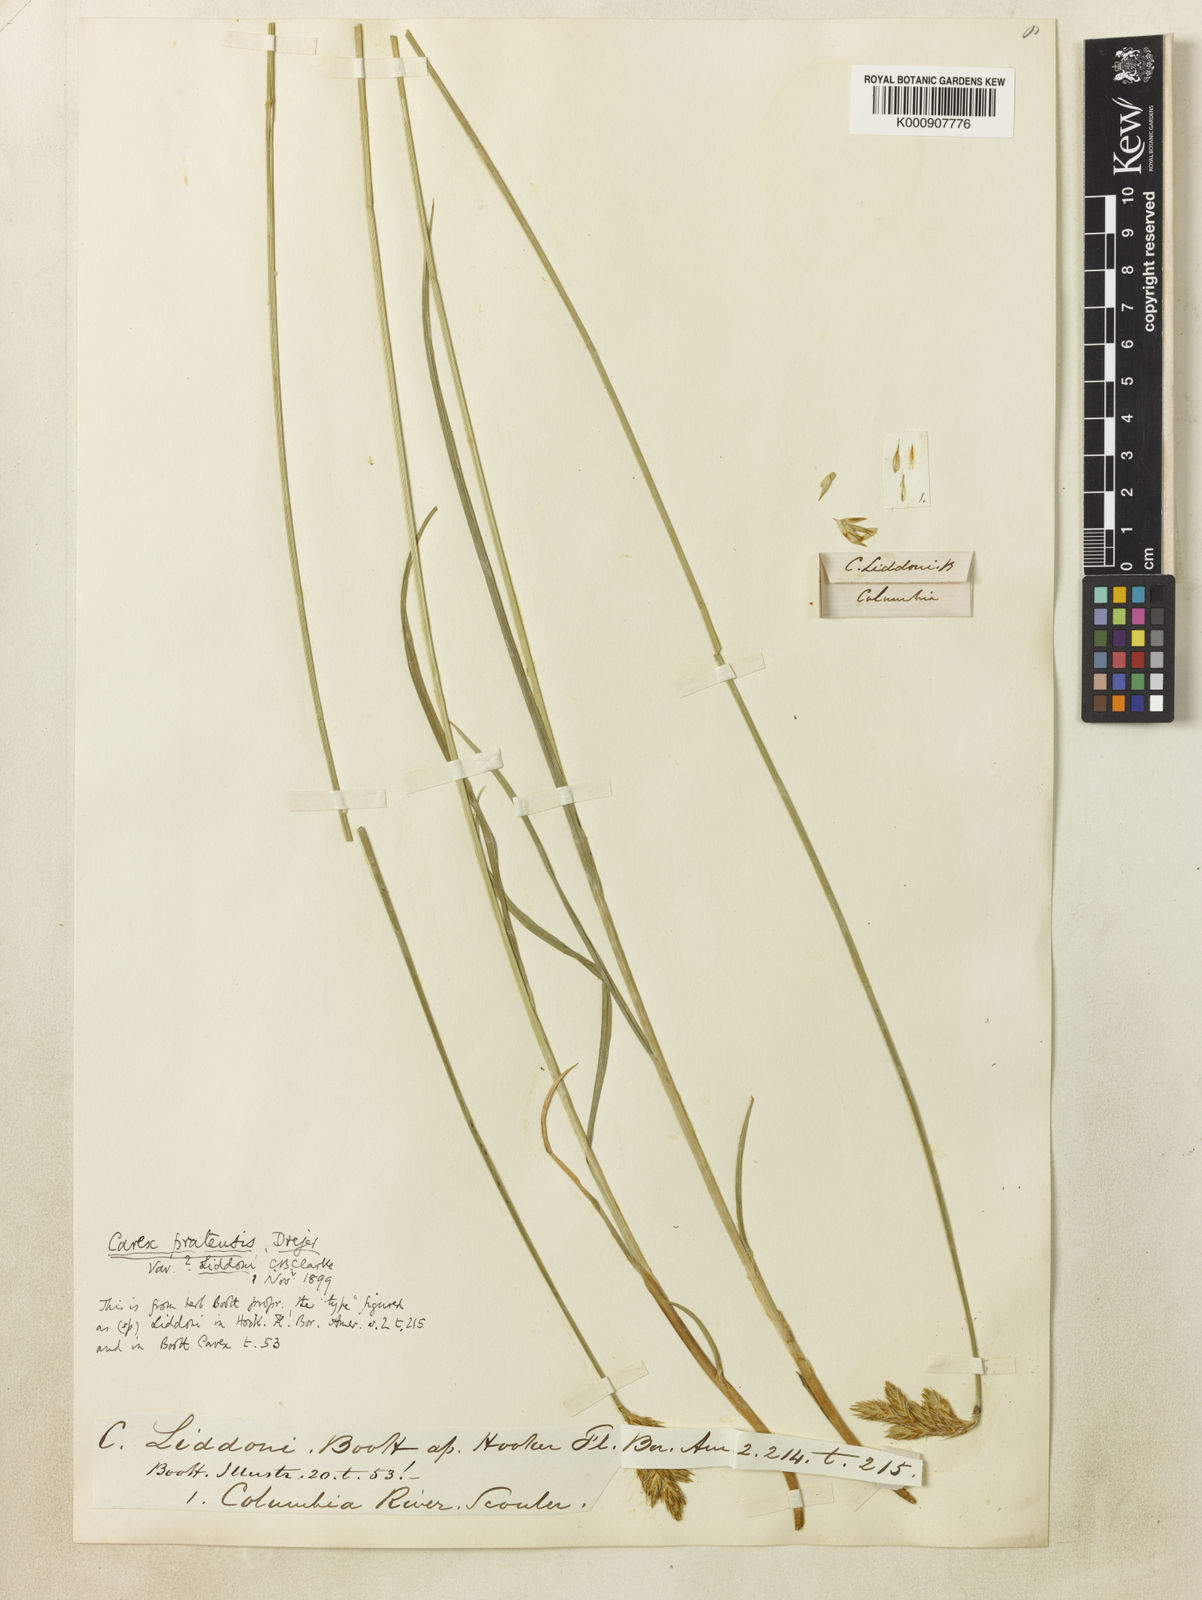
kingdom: Plantae
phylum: Tracheophyta
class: Liliopsida
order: Poales
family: Cyperaceae
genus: Carex
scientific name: Carex petasata
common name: Liddon's sedge
